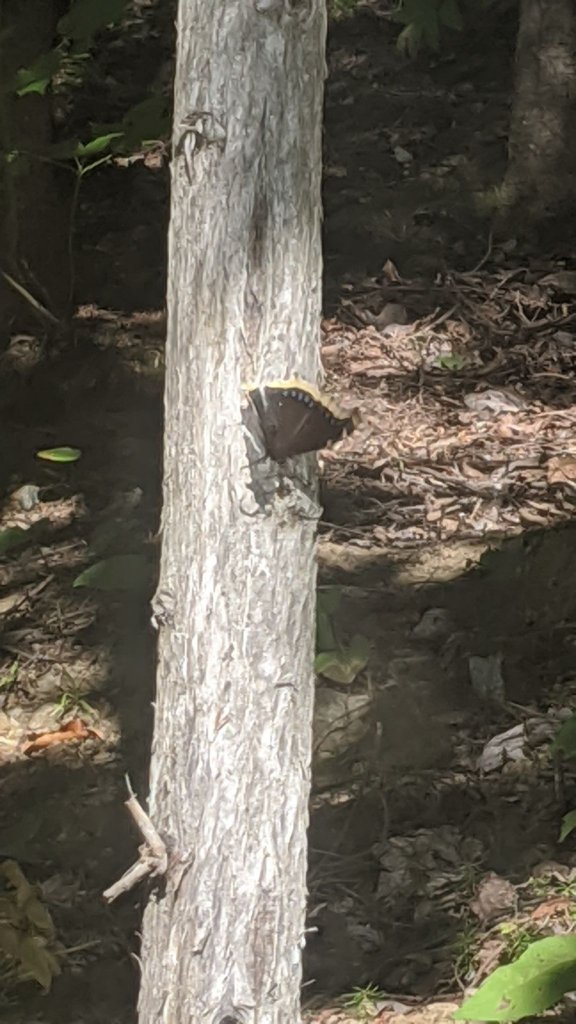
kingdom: Animalia
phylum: Arthropoda
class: Insecta
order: Lepidoptera
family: Nymphalidae
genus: Nymphalis
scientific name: Nymphalis antiopa
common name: Mourning Cloak
